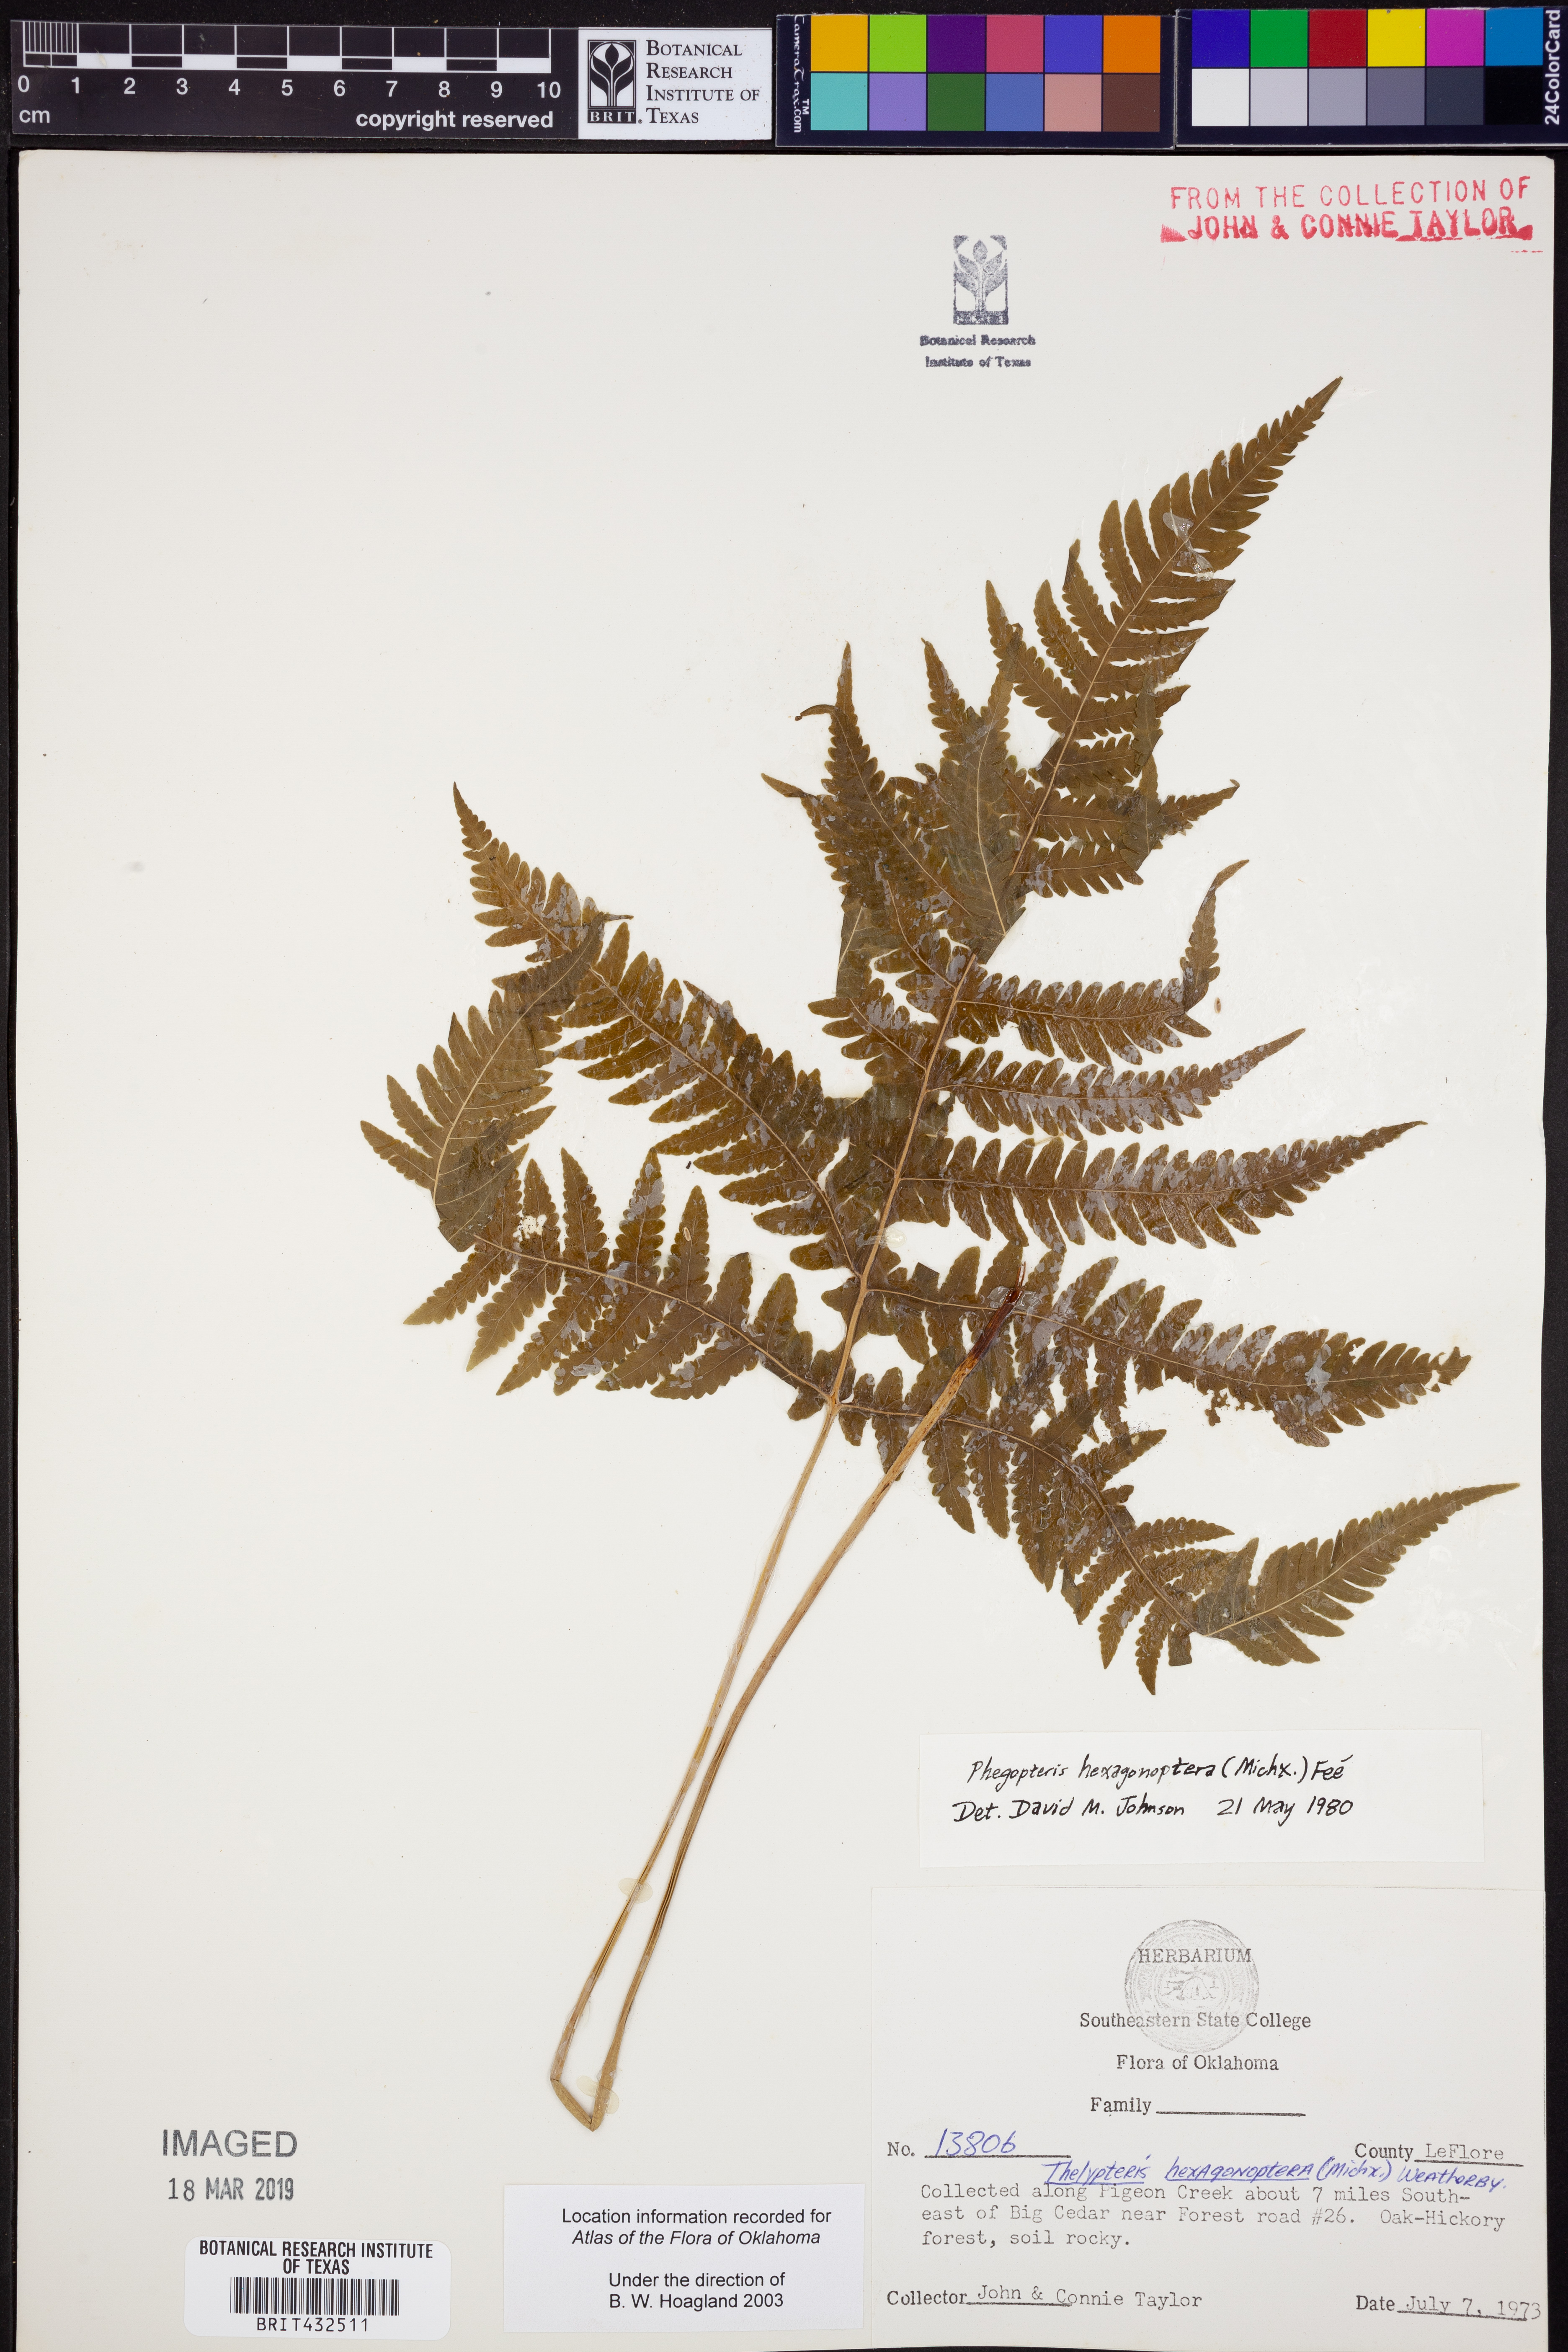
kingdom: Plantae
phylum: Tracheophyta
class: Polypodiopsida
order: Polypodiales
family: Thelypteridaceae
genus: Phegopteris
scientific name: Phegopteris hexagonoptera
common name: Broad beech fern
